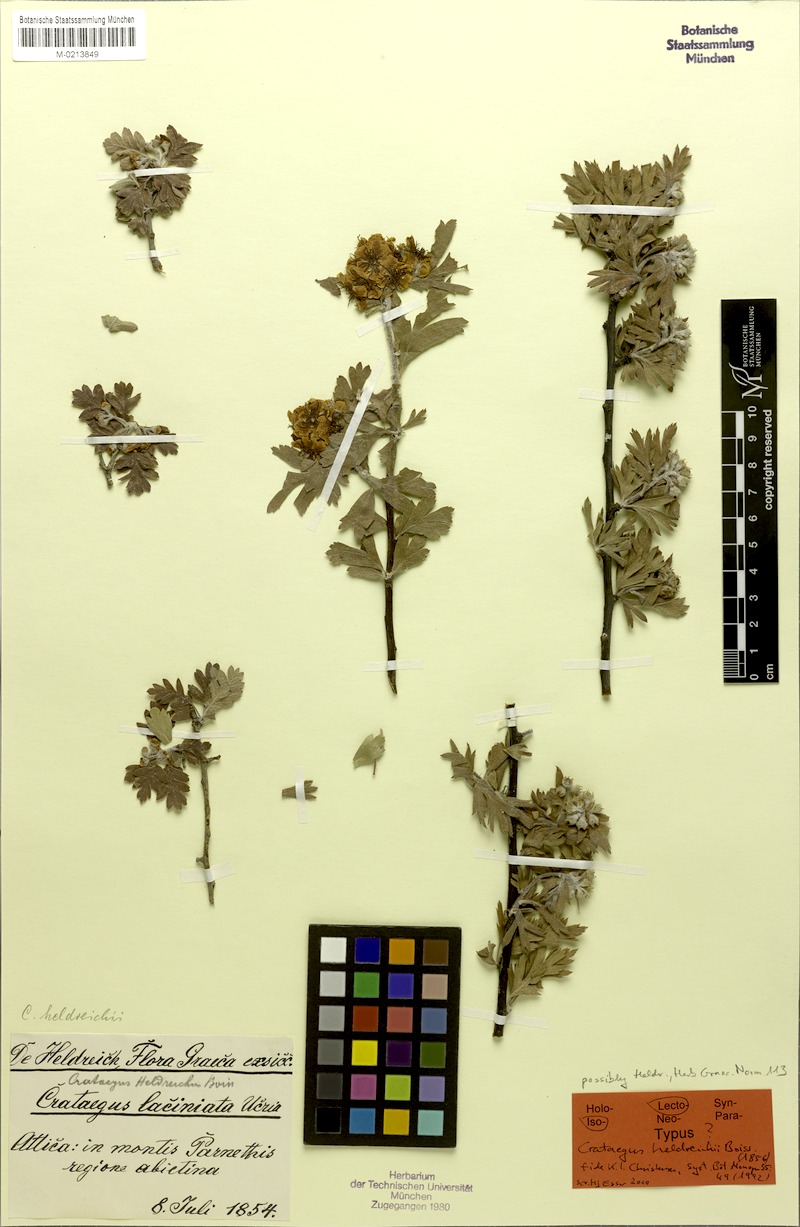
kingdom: Plantae
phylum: Tracheophyta
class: Magnoliopsida
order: Rosales
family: Rosaceae
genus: Crataegus
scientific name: Crataegus heldreichii
